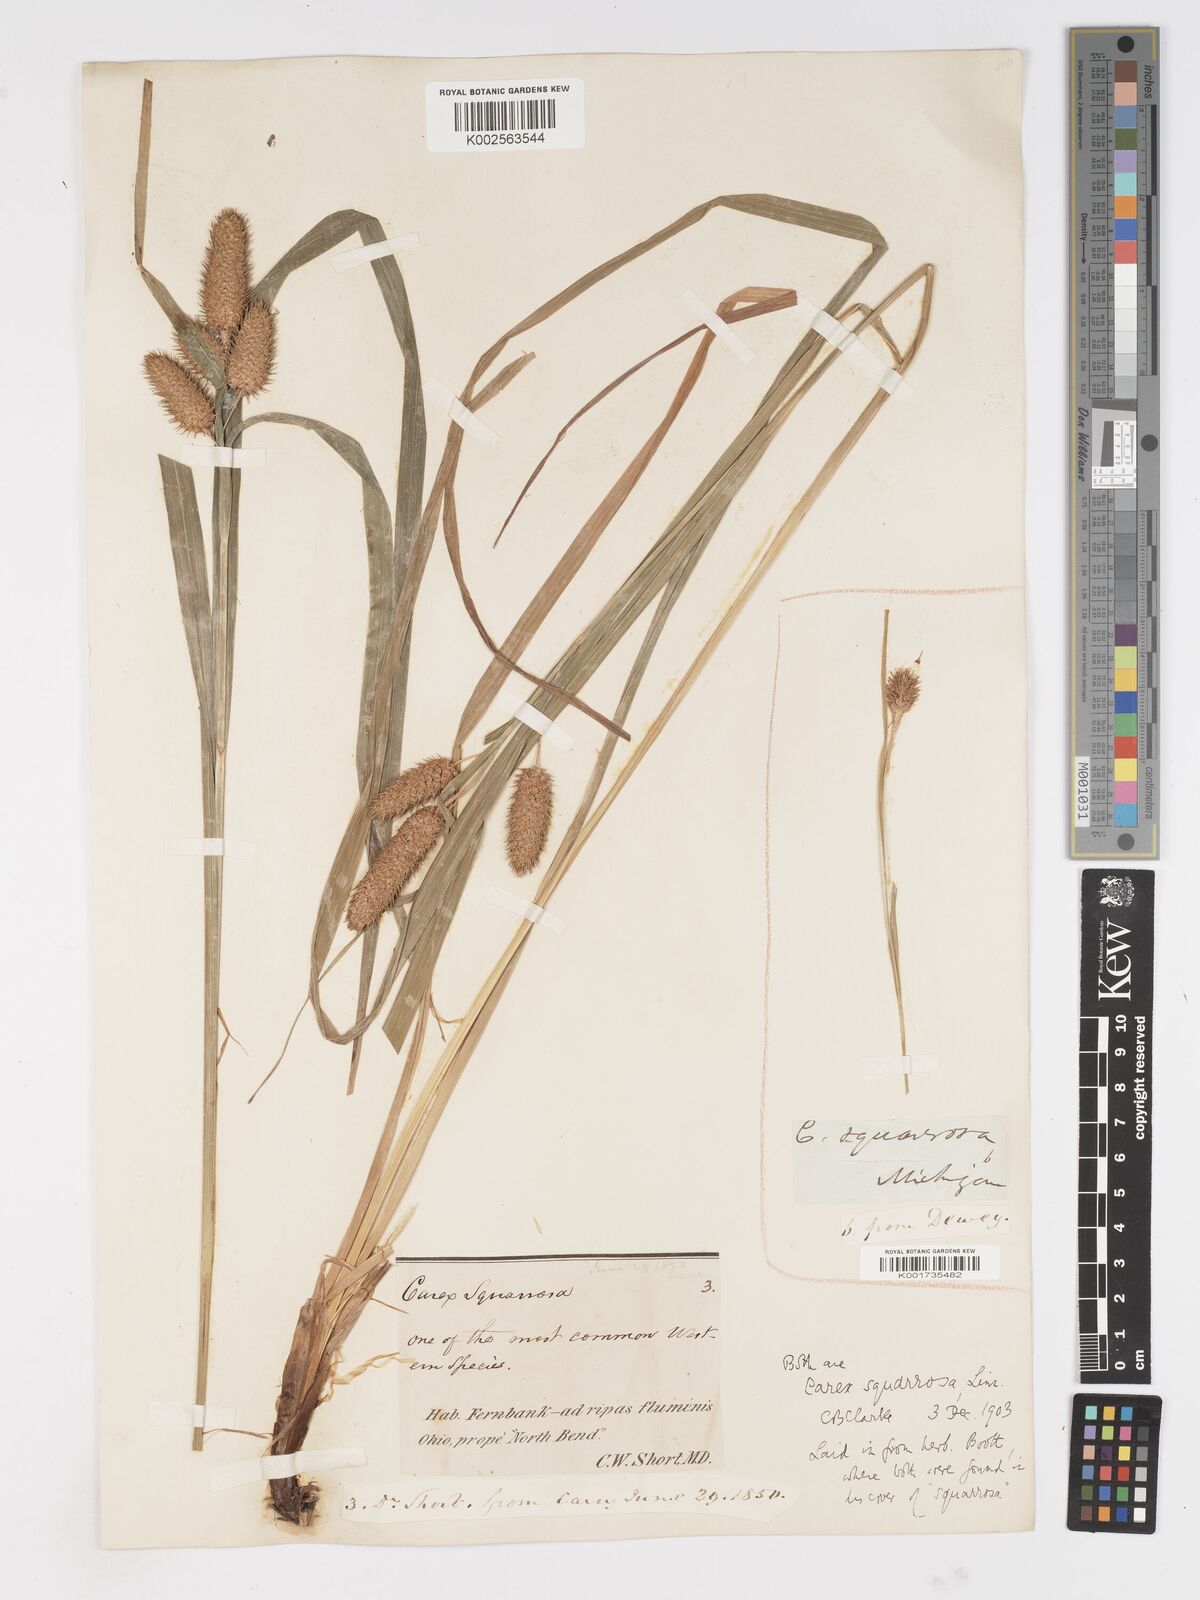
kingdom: Plantae
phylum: Tracheophyta
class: Liliopsida
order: Poales
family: Cyperaceae
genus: Carex
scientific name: Carex squarrosa
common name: Narrow-leaved cattail sedge
